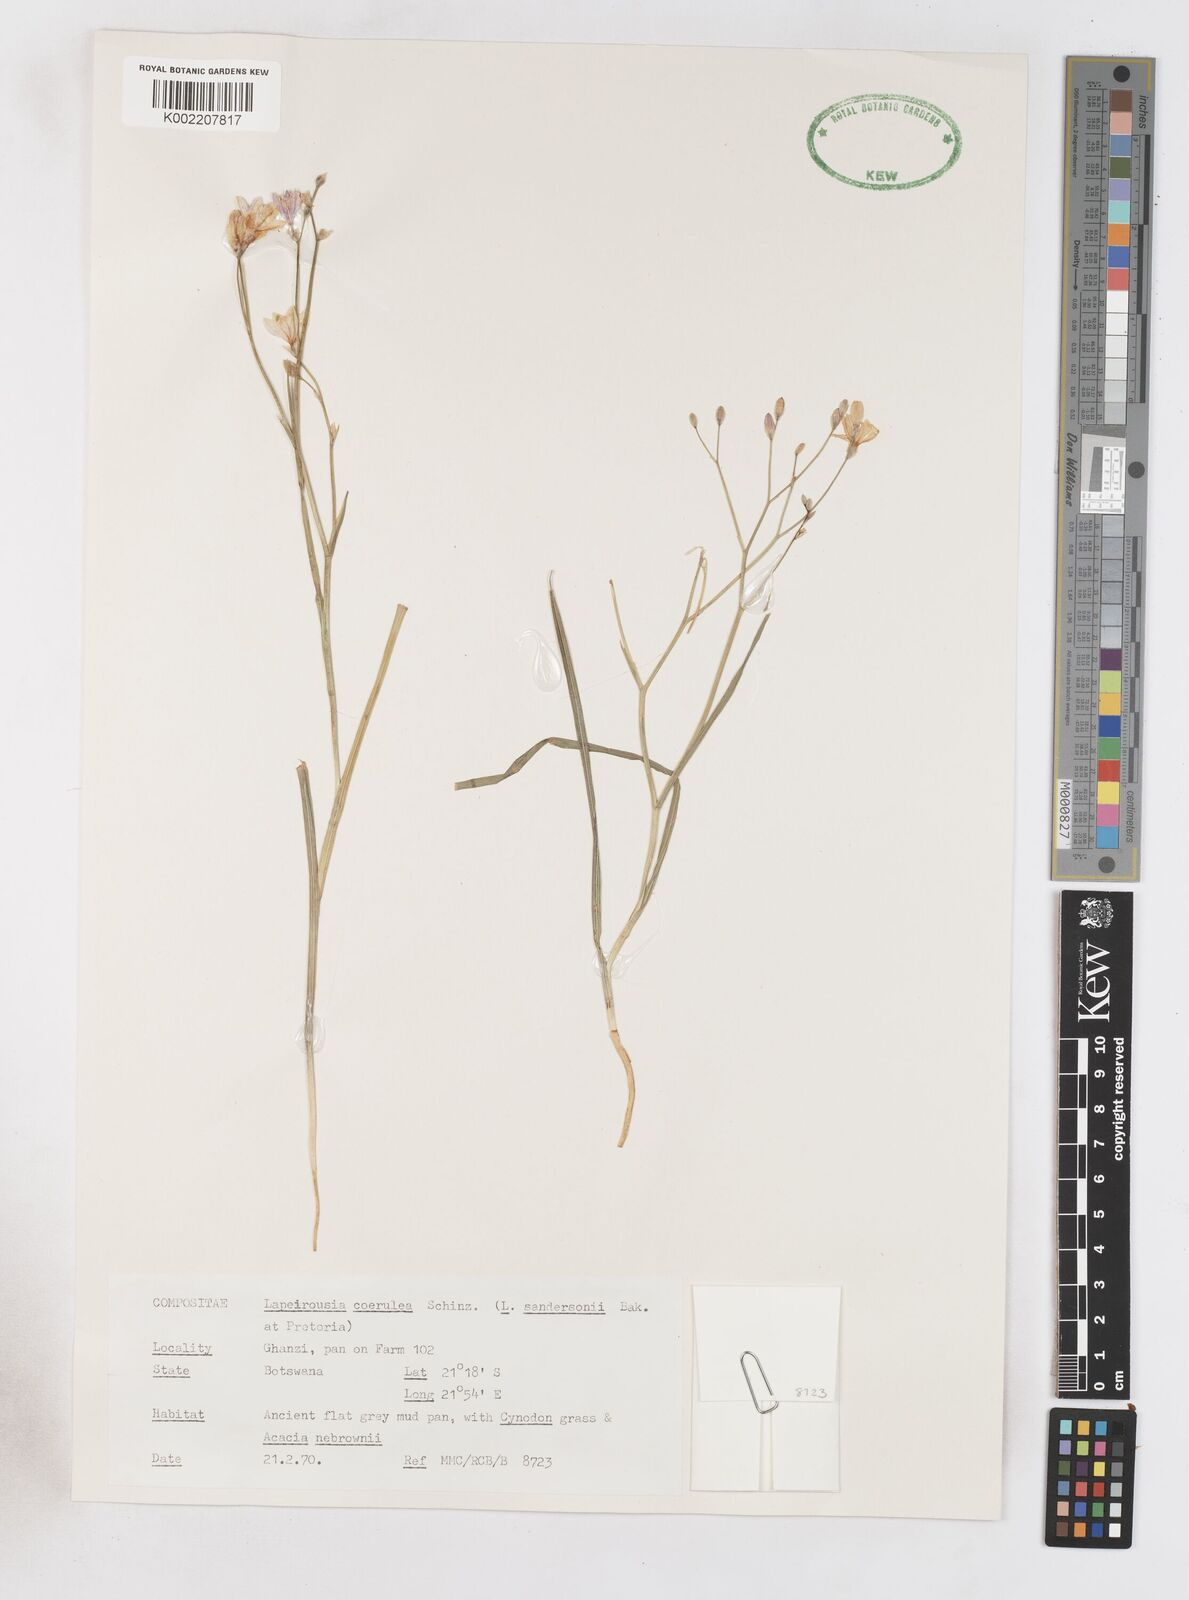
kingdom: Plantae
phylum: Tracheophyta
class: Liliopsida
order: Asparagales
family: Iridaceae
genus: Afrosolen
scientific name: Afrosolen coeruleus
